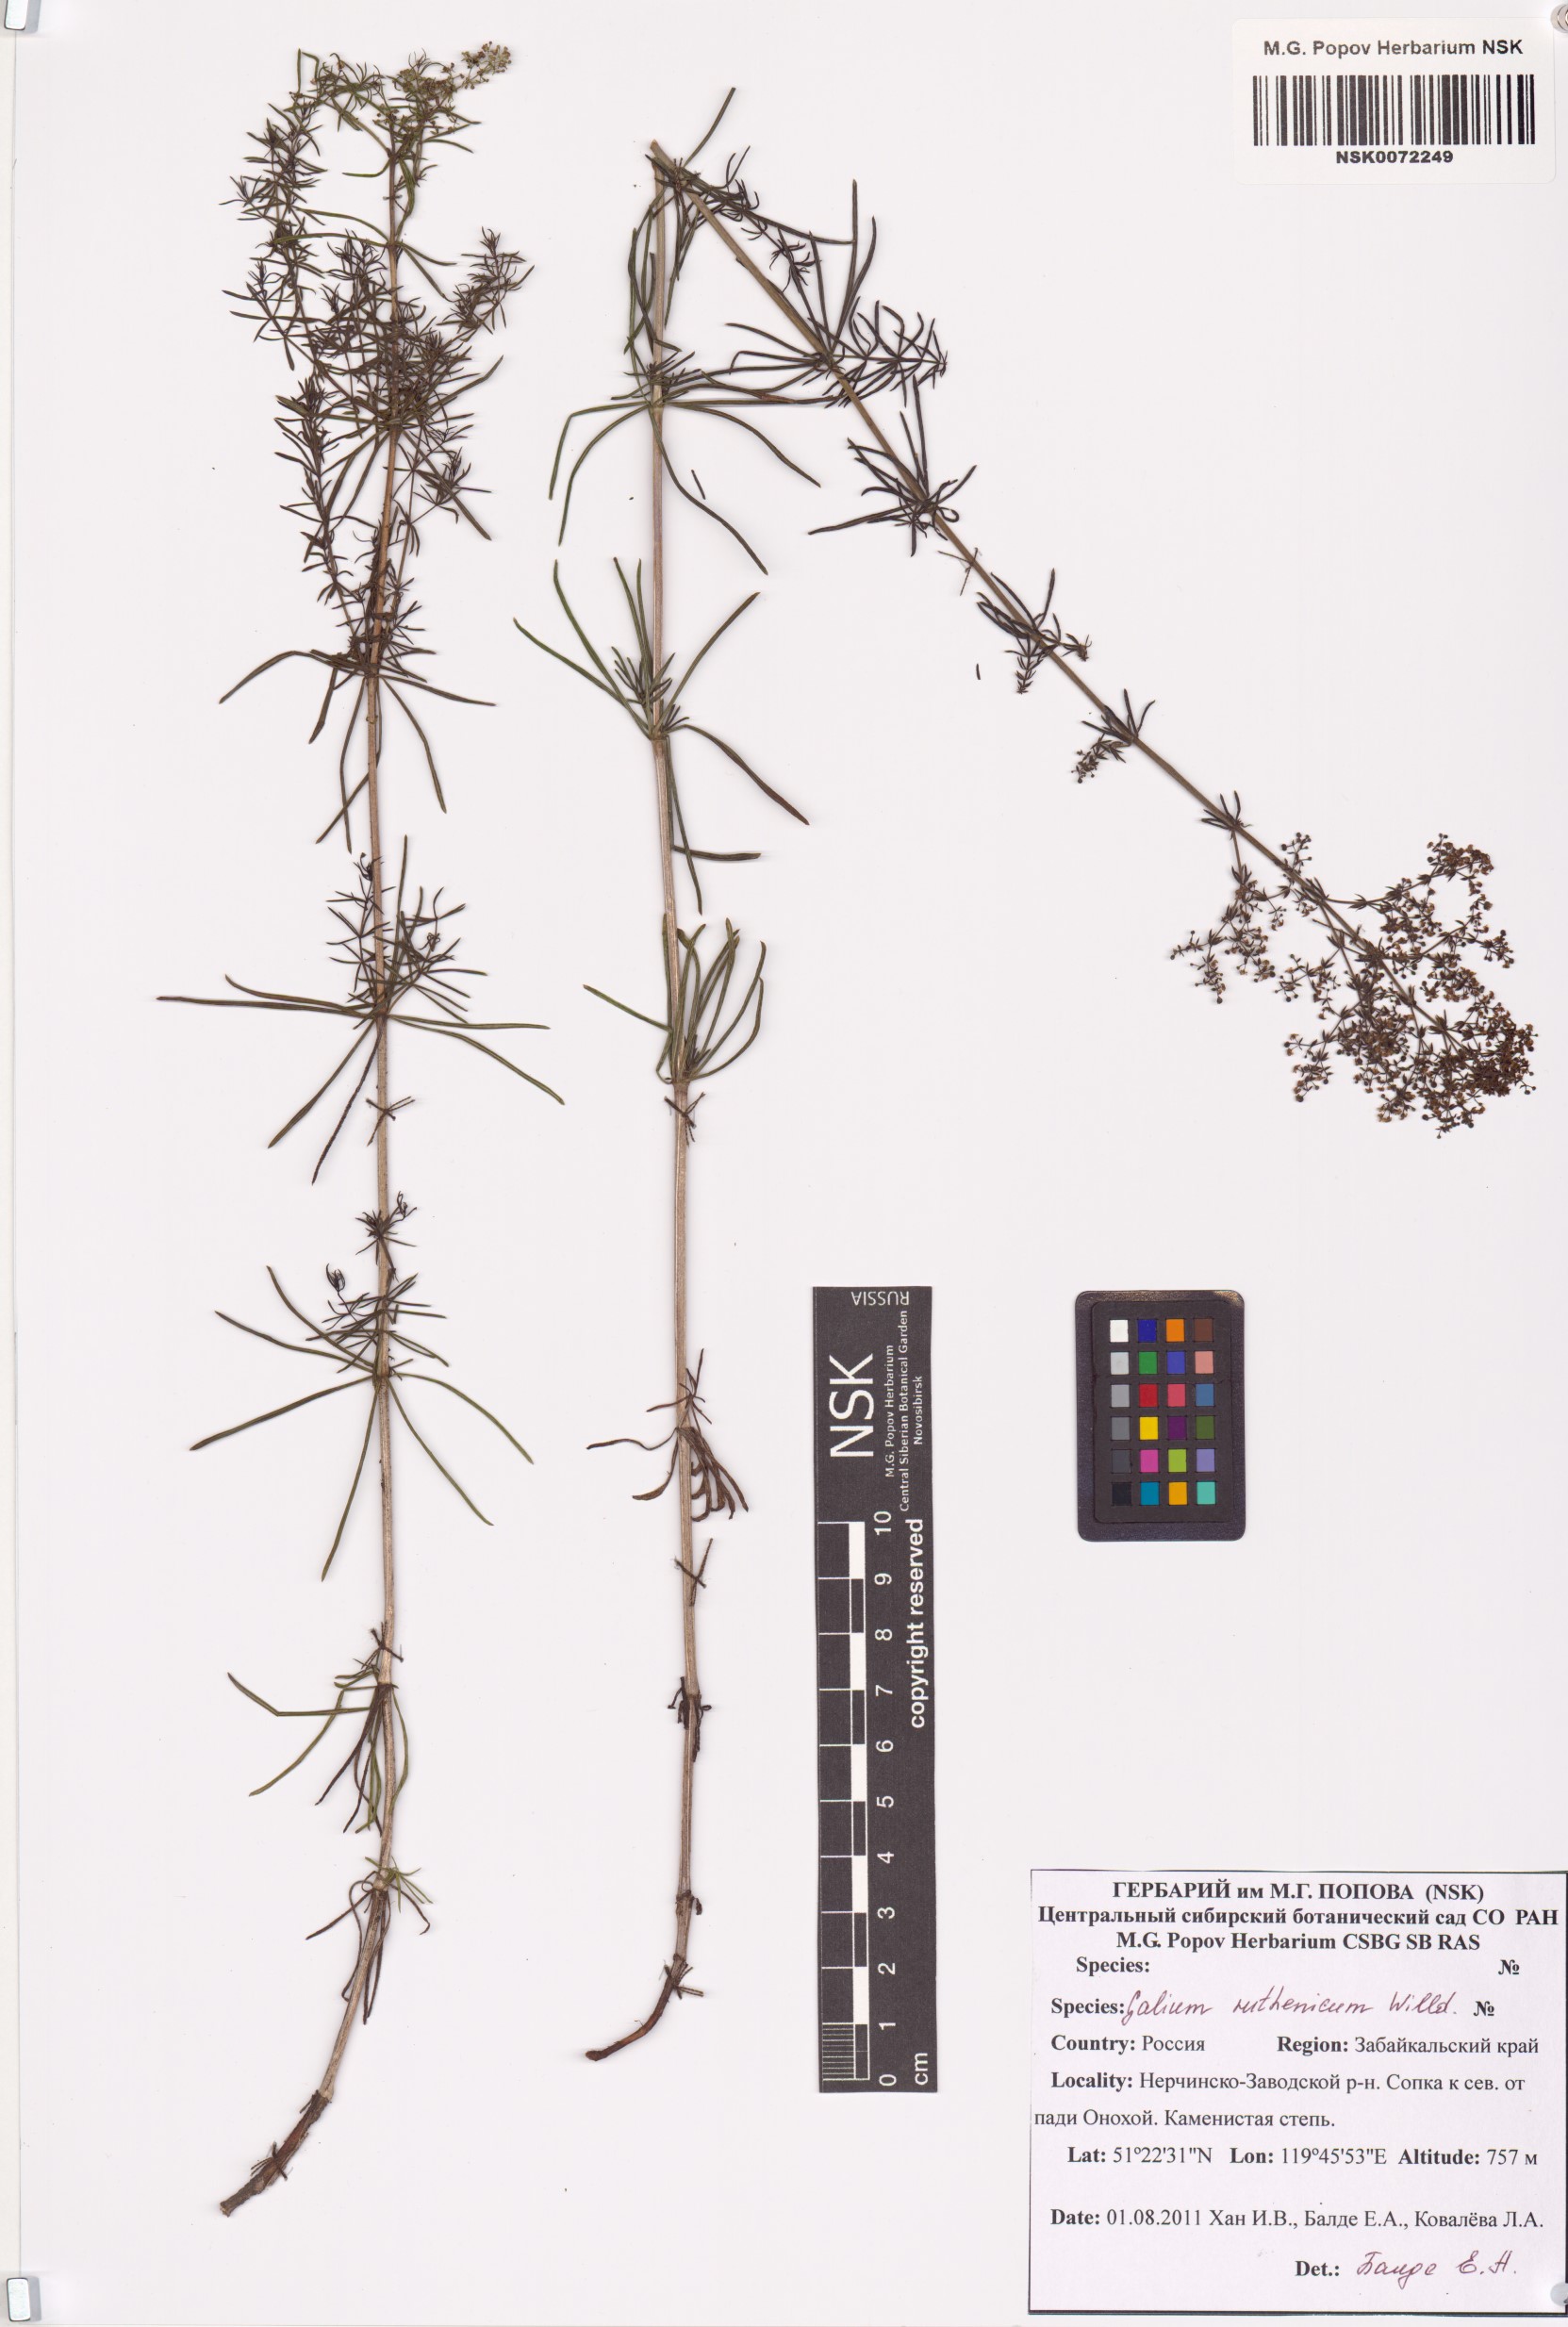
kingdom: Plantae
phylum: Tracheophyta
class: Magnoliopsida
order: Gentianales
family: Rubiaceae
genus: Galium
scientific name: Galium verum
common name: Lady's bedstraw
